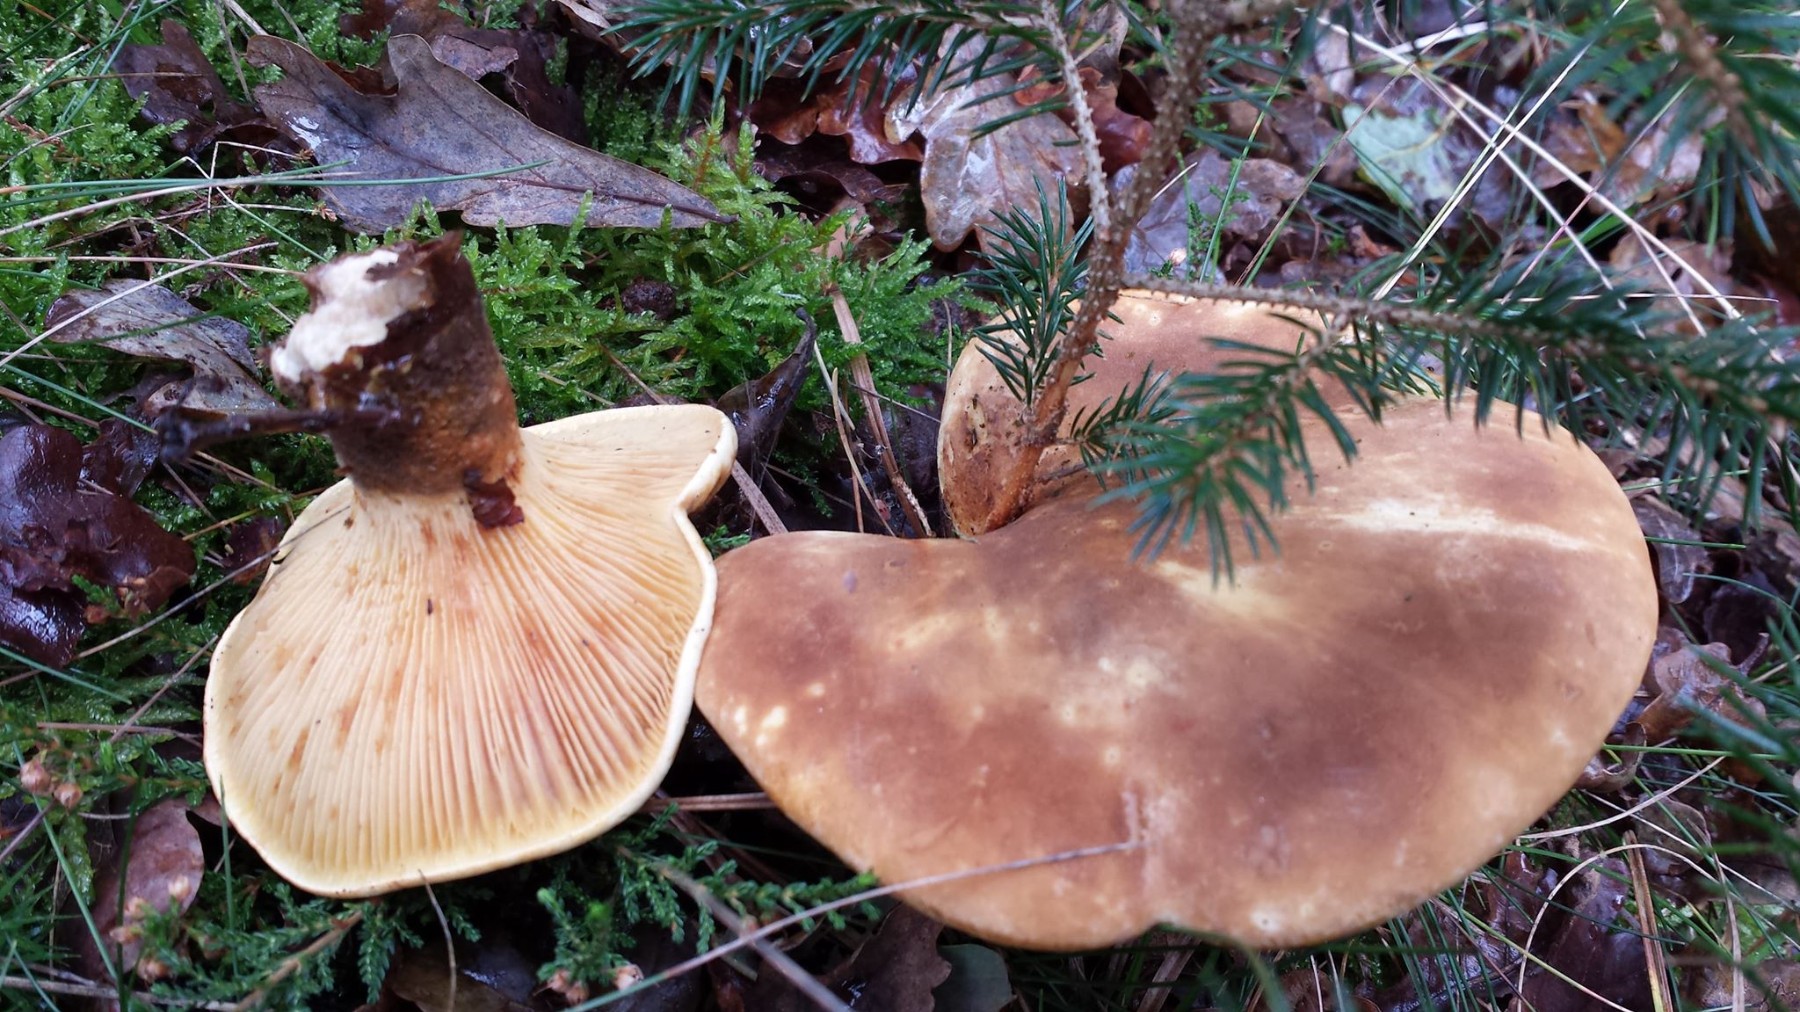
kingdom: Fungi
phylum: Basidiomycota
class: Agaricomycetes
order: Boletales
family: Tapinellaceae
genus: Tapinella
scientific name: Tapinella atrotomentosa
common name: sortfiltet viftesvamp
